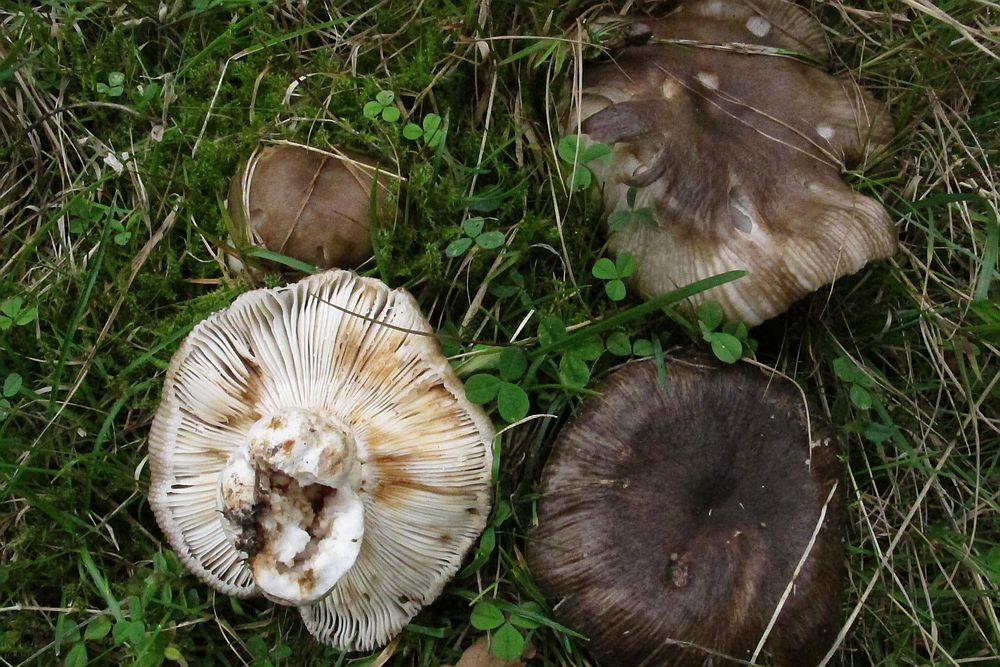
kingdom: Fungi
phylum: Basidiomycota
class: Agaricomycetes
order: Russulales
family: Russulaceae
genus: Russula
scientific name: Russula foetens
